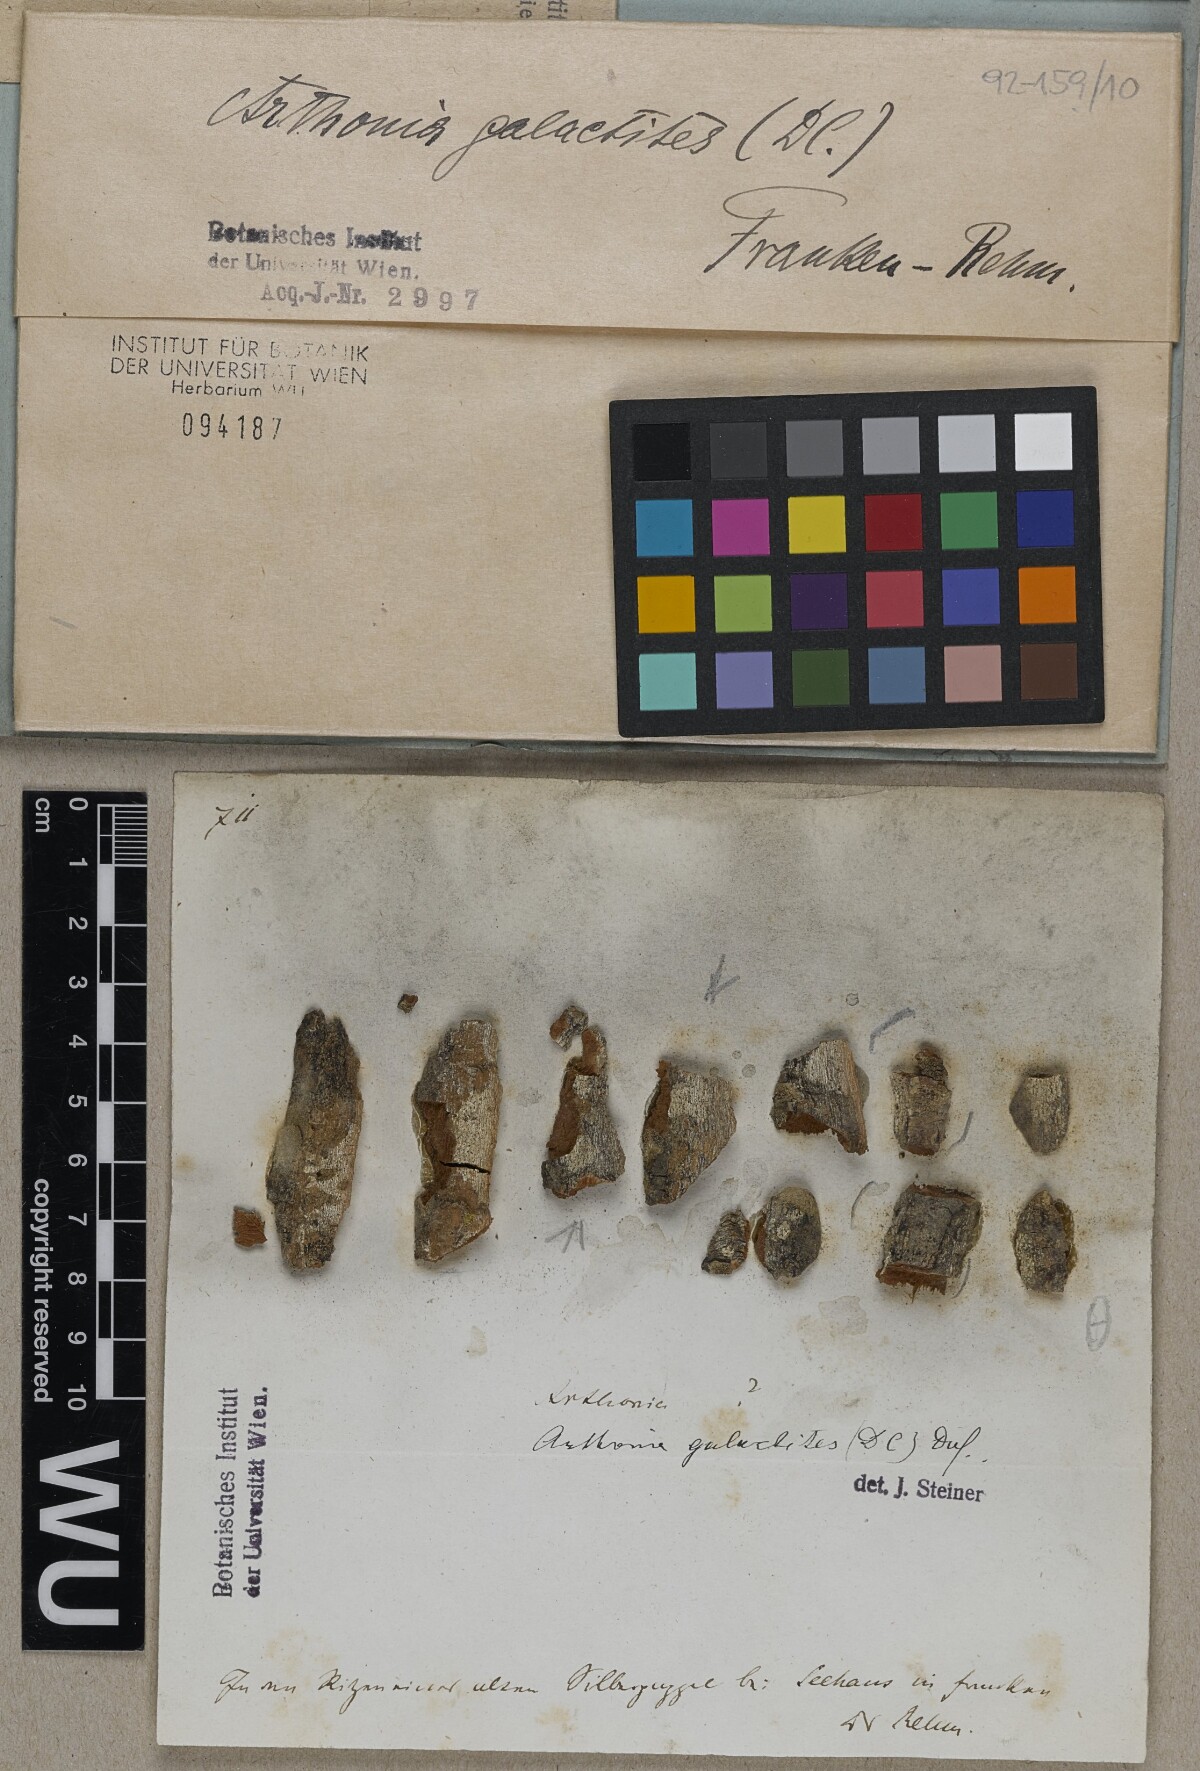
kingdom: Fungi
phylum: Ascomycota
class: Arthoniomycetes
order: Arthoniales
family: Arthoniaceae
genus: Arthonia
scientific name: Arthonia galactites
